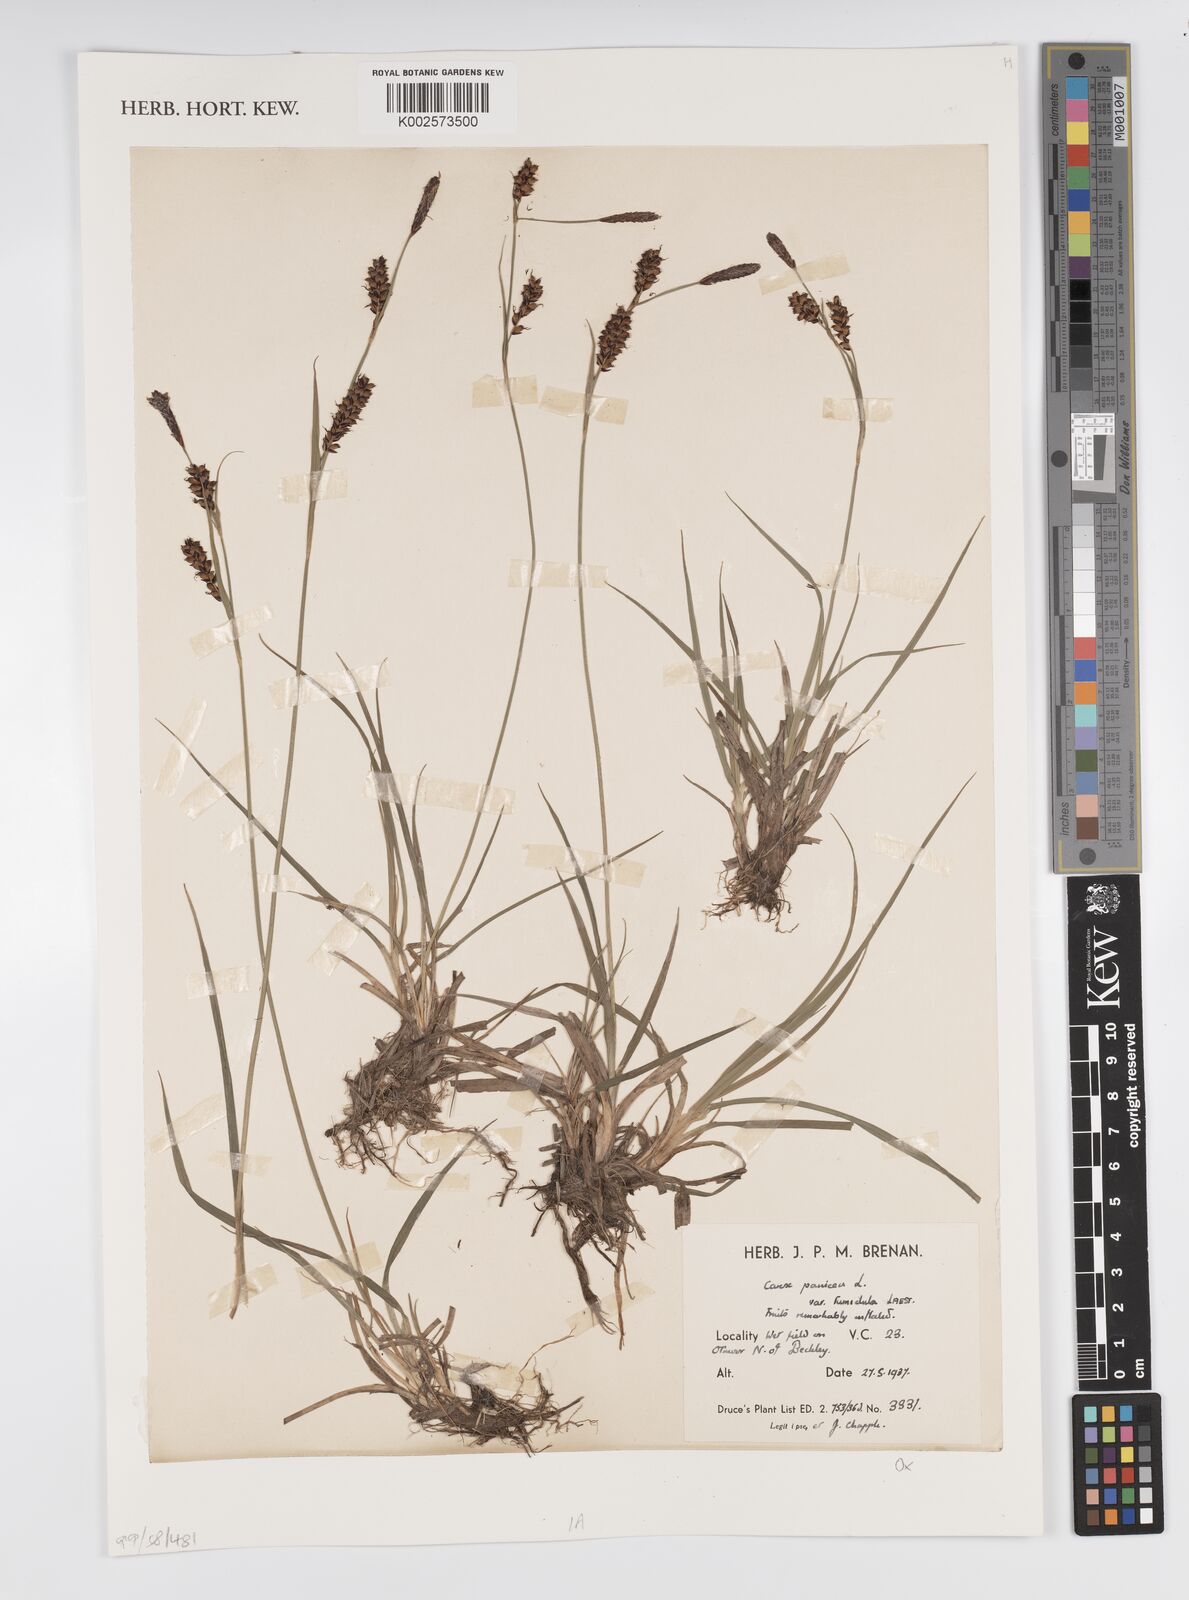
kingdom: Plantae
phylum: Tracheophyta
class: Liliopsida
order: Poales
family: Cyperaceae
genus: Carex
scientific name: Carex panicea
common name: Carnation sedge
